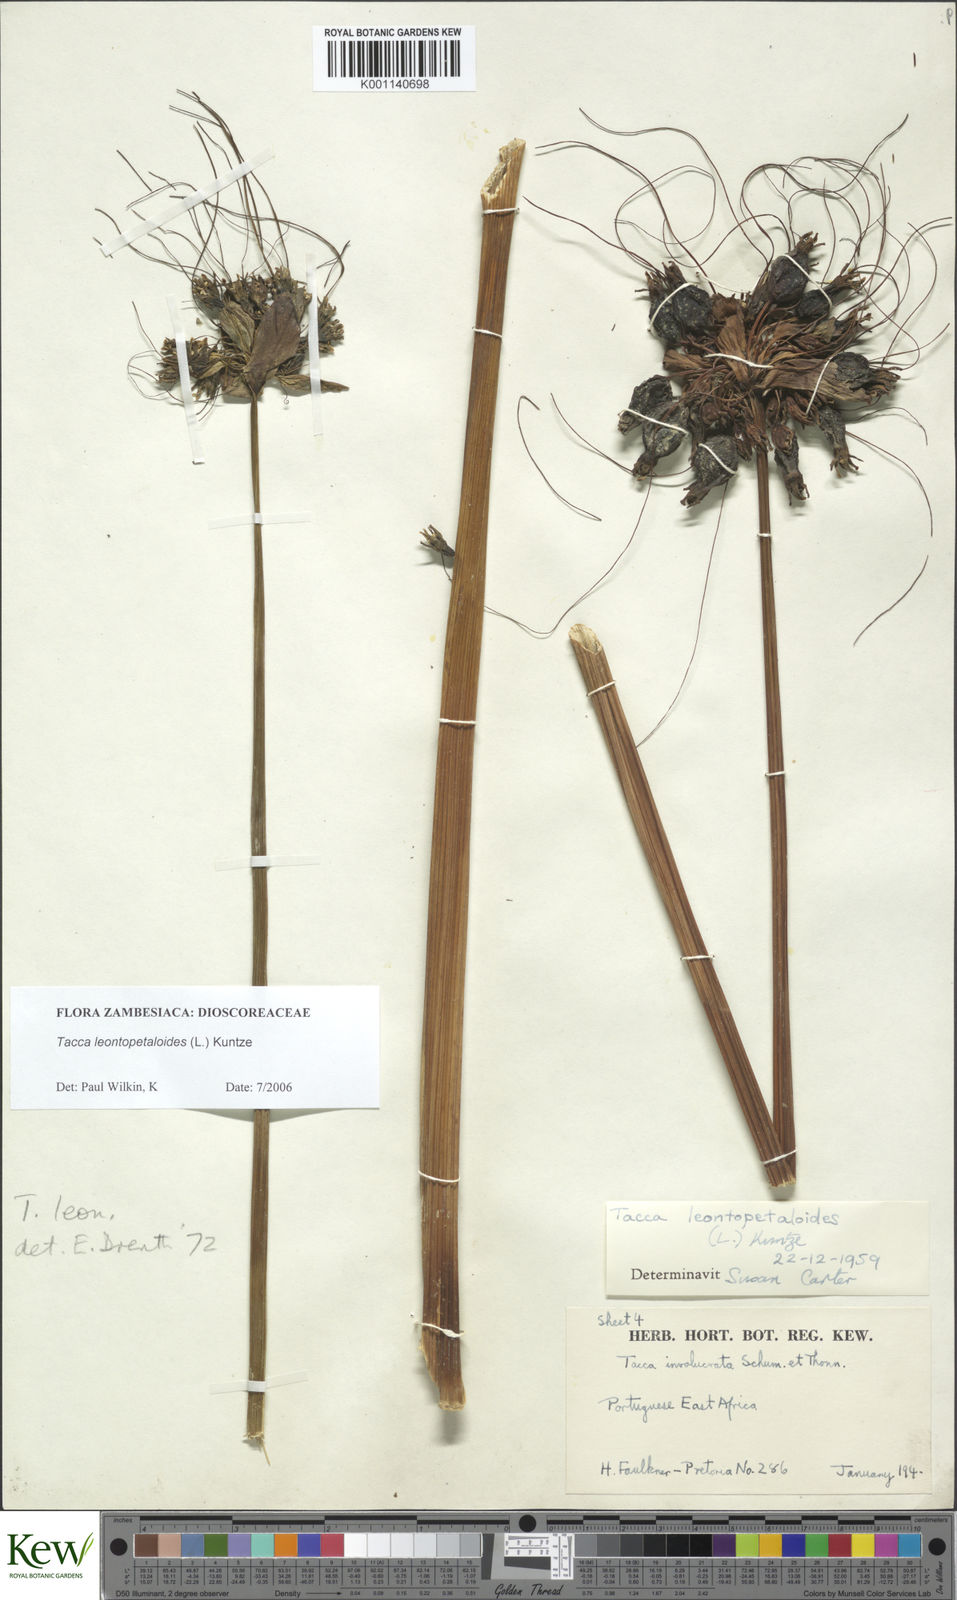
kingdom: Plantae
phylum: Tracheophyta
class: Liliopsida
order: Dioscoreales
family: Dioscoreaceae
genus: Tacca
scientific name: Tacca leontopetaloides
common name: Arrowroot
